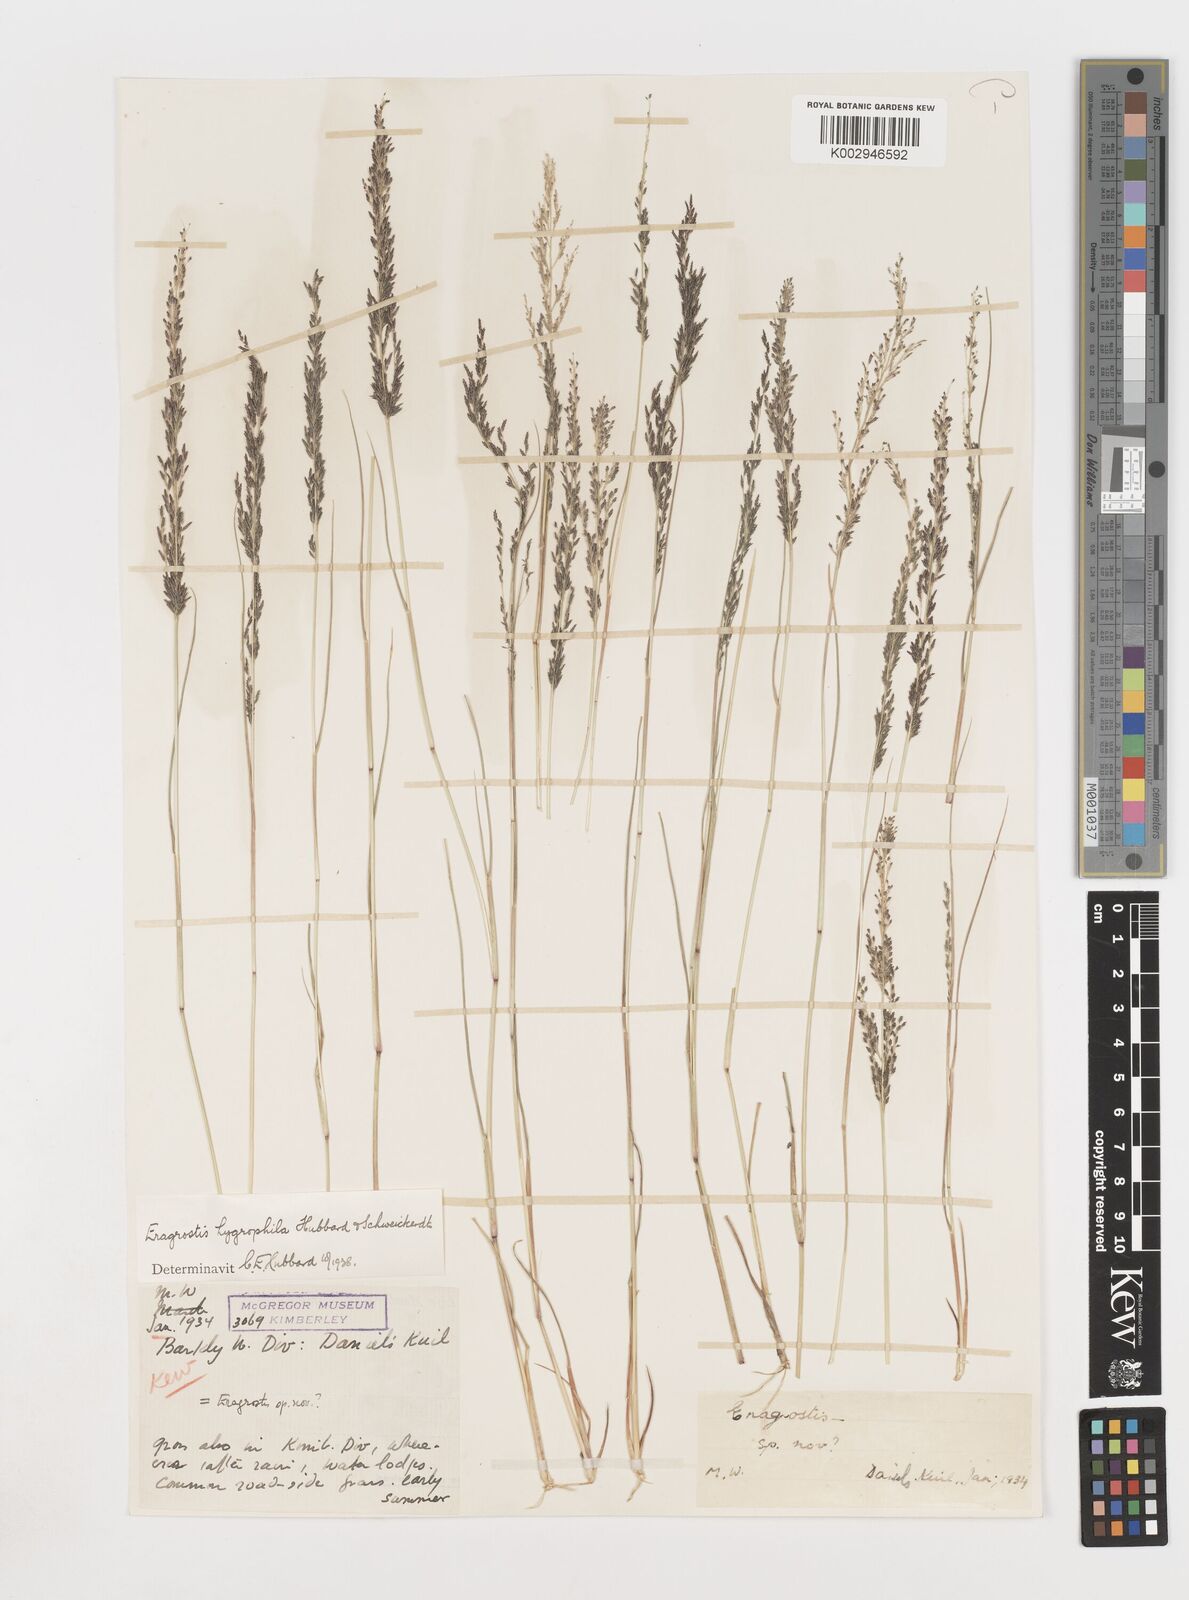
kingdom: Plantae
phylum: Tracheophyta
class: Liliopsida
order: Poales
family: Poaceae
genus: Eragrostis
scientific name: Eragrostis homomalla
